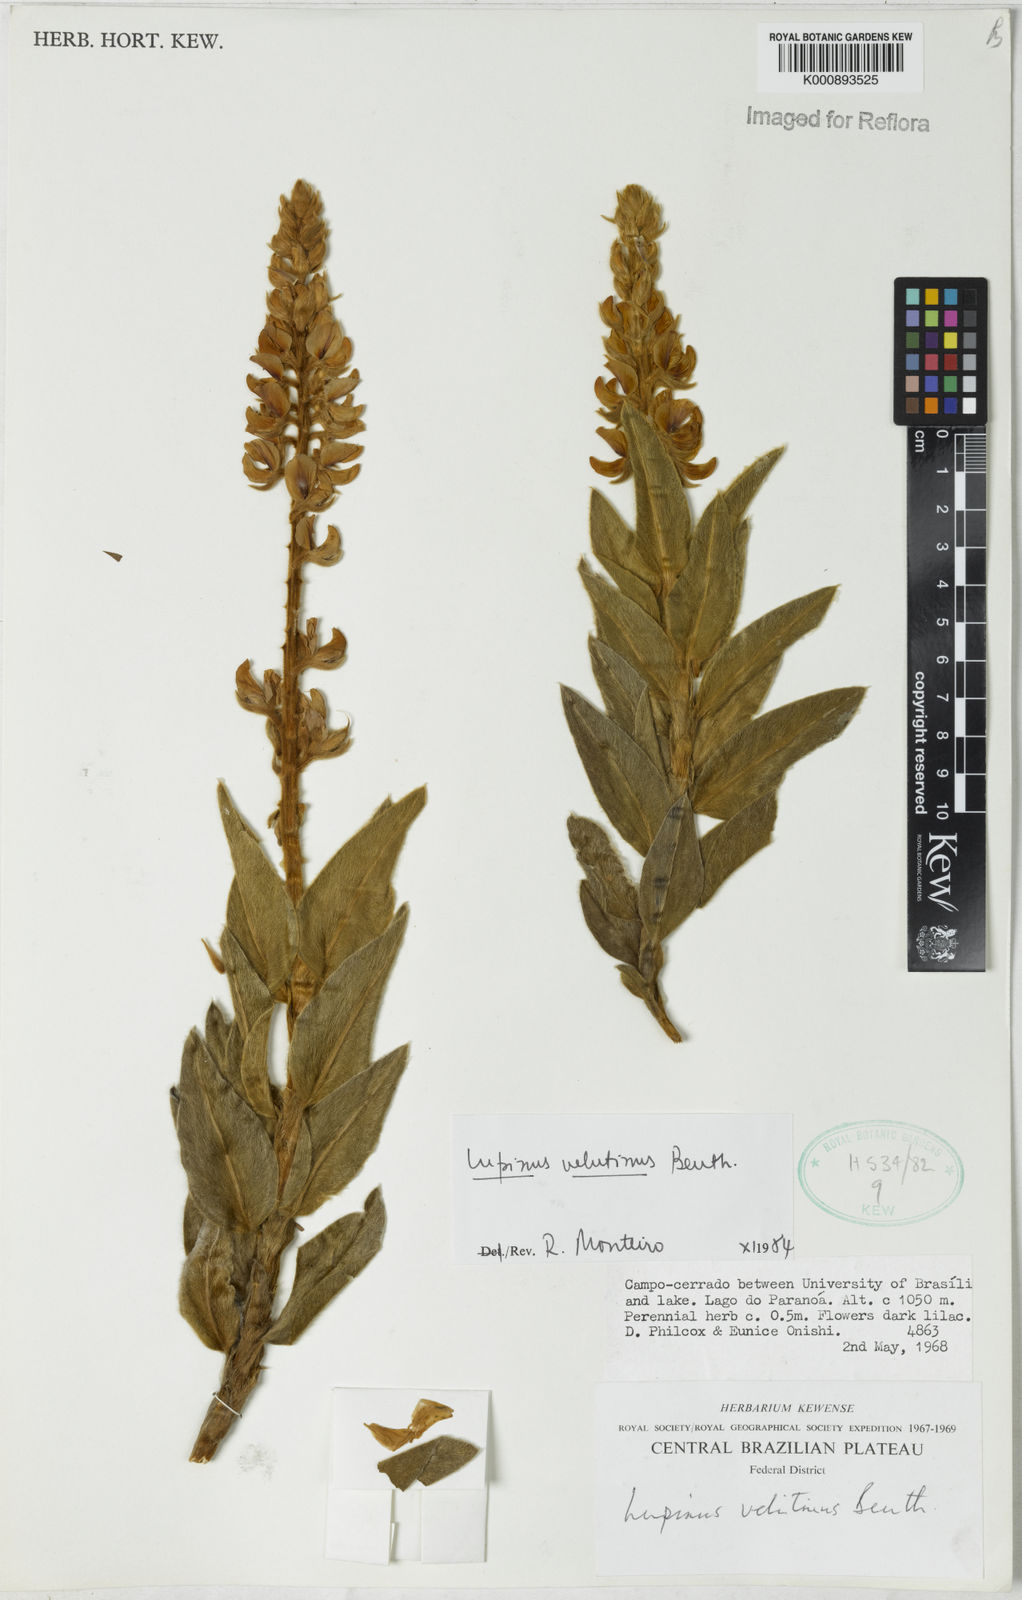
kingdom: Plantae
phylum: Tracheophyta
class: Magnoliopsida
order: Fabales
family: Fabaceae
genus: Lupinus
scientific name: Lupinus velutinus
